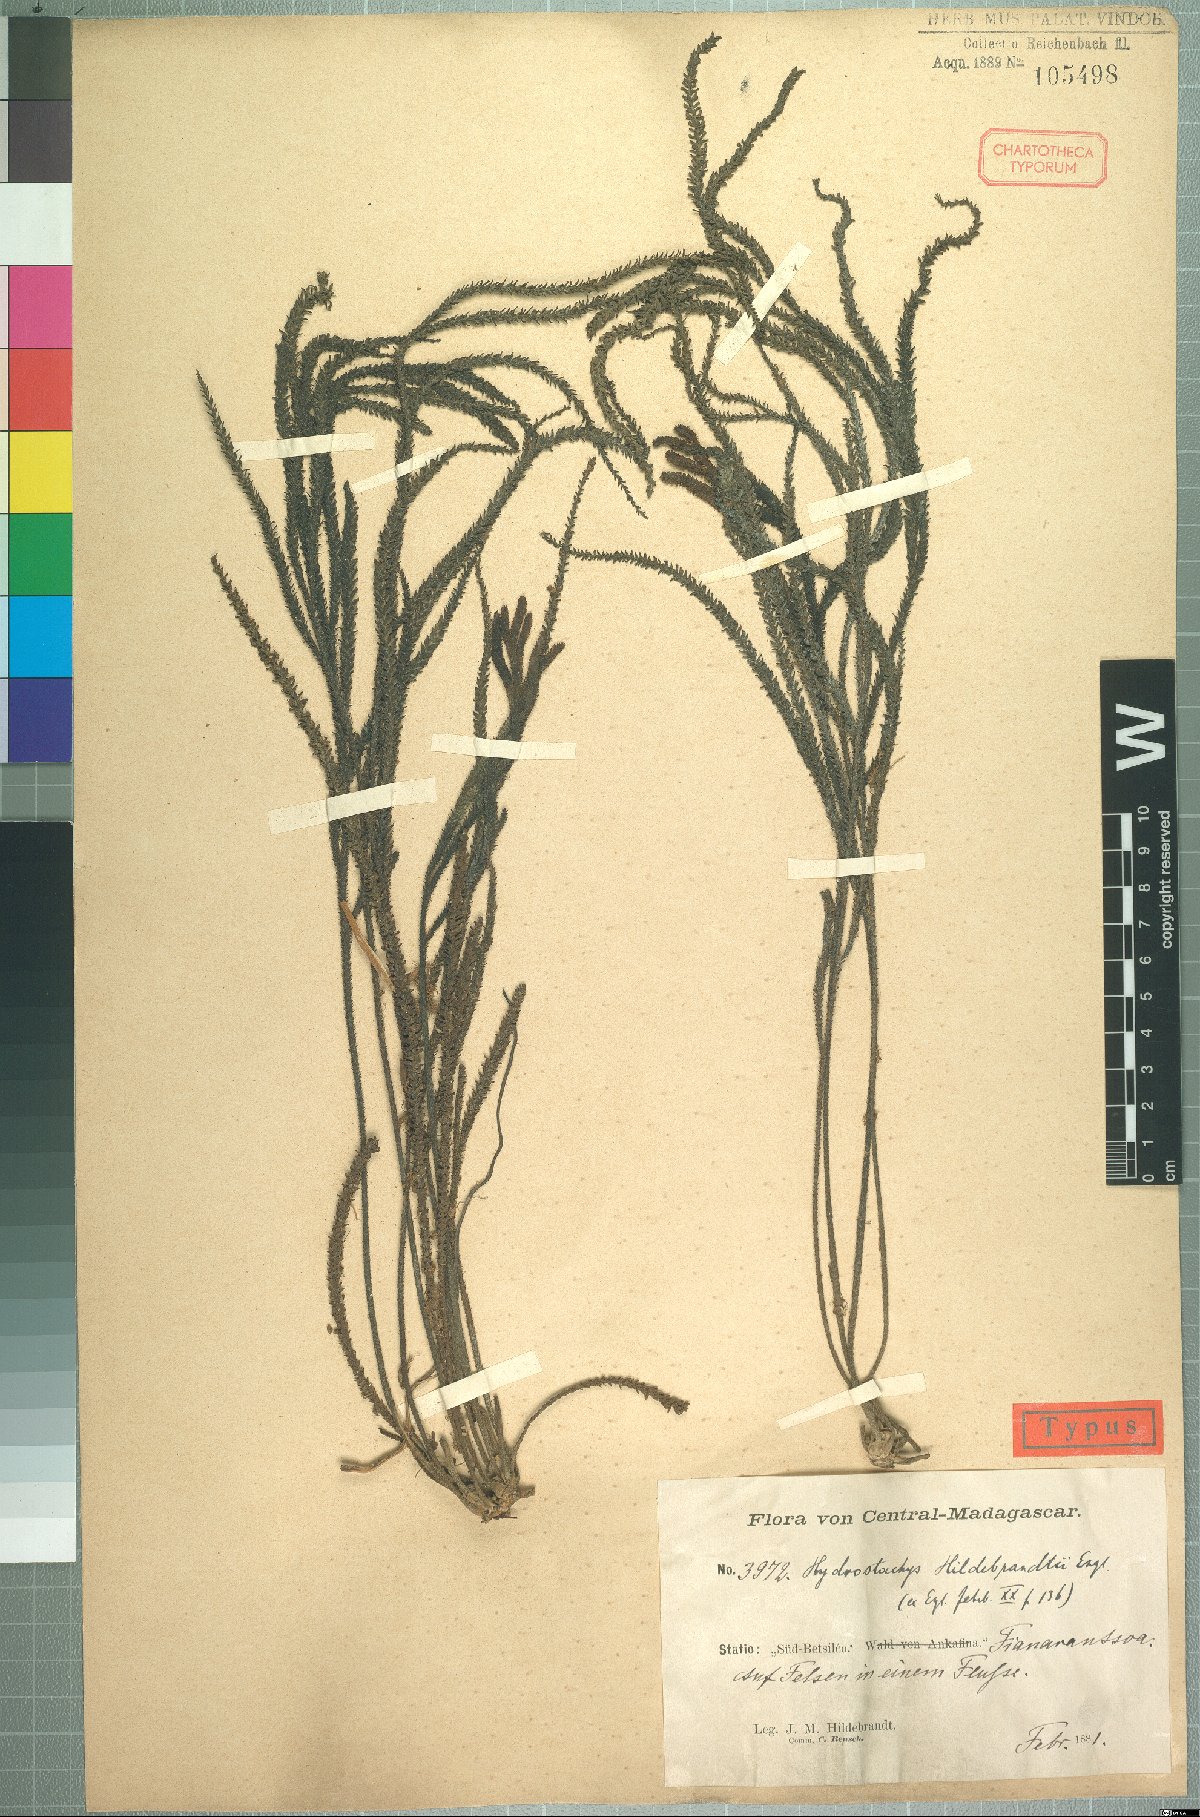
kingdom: Plantae
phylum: Tracheophyta
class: Magnoliopsida
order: Cornales
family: Hydrostachyaceae
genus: Hydrostachys
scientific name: Hydrostachys distichophylla
